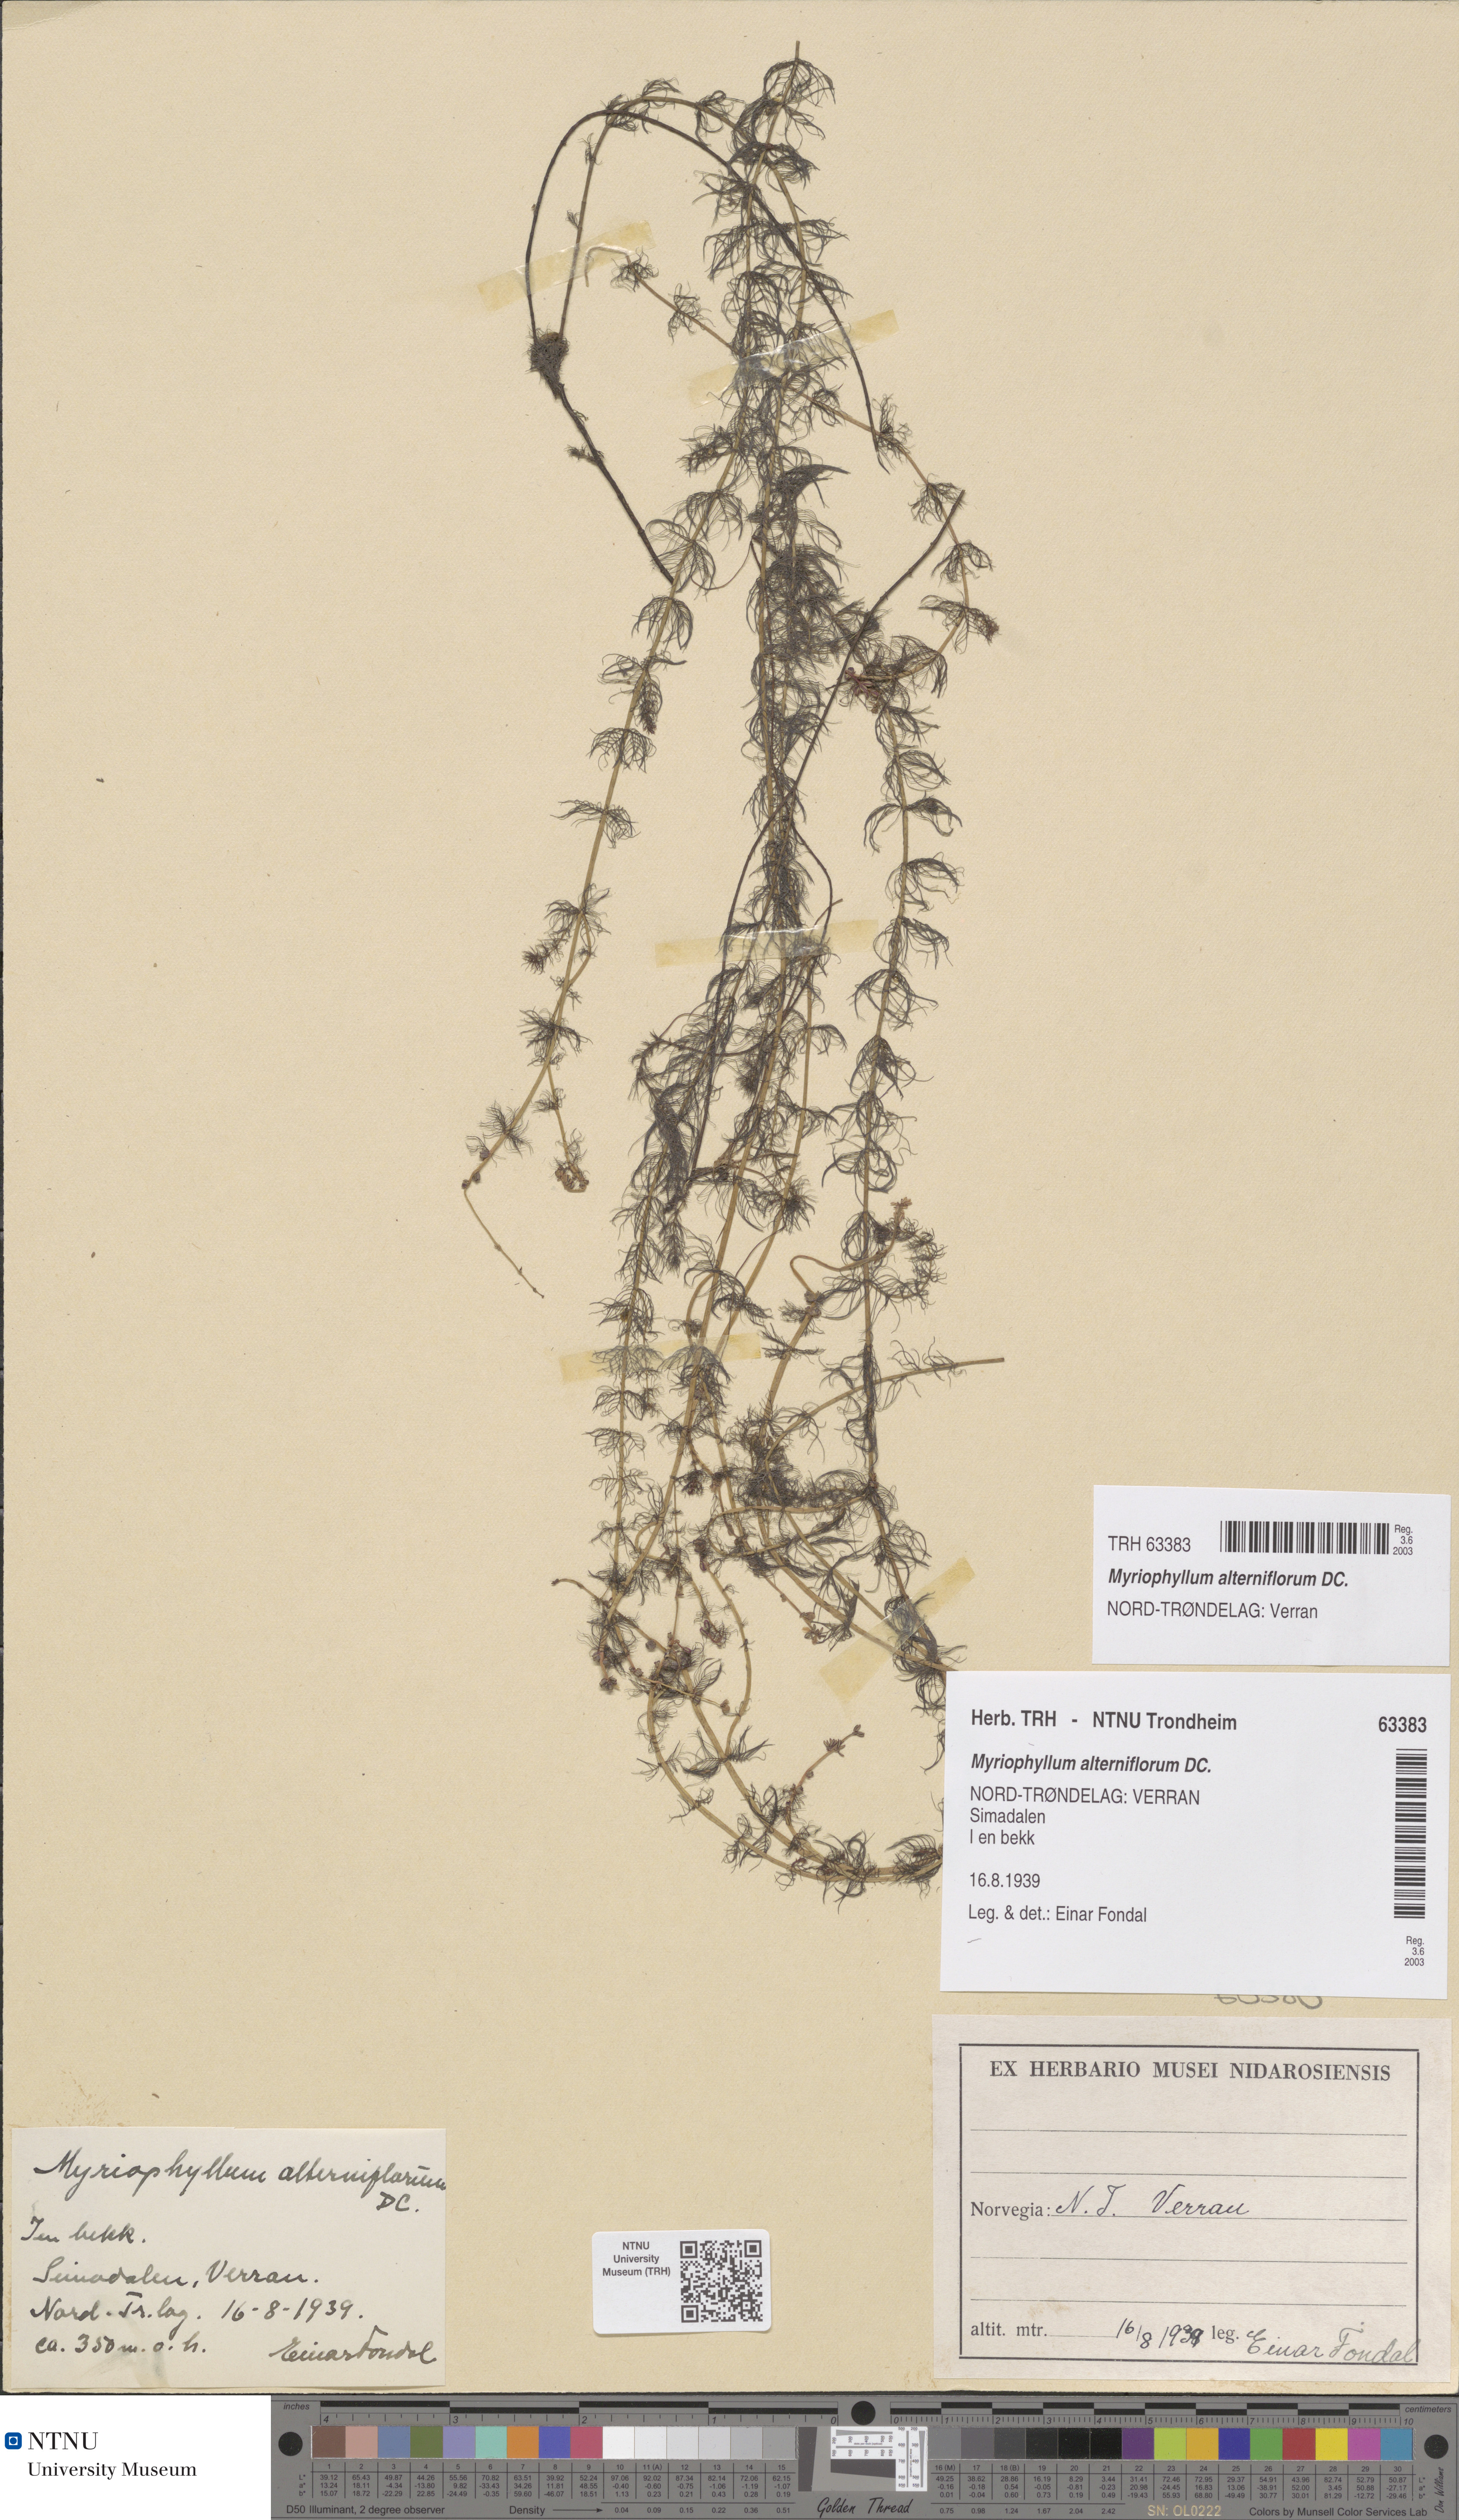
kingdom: Plantae
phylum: Tracheophyta
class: Magnoliopsida
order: Saxifragales
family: Haloragaceae
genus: Myriophyllum
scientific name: Myriophyllum alterniflorum
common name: Alternate water-milfoil
